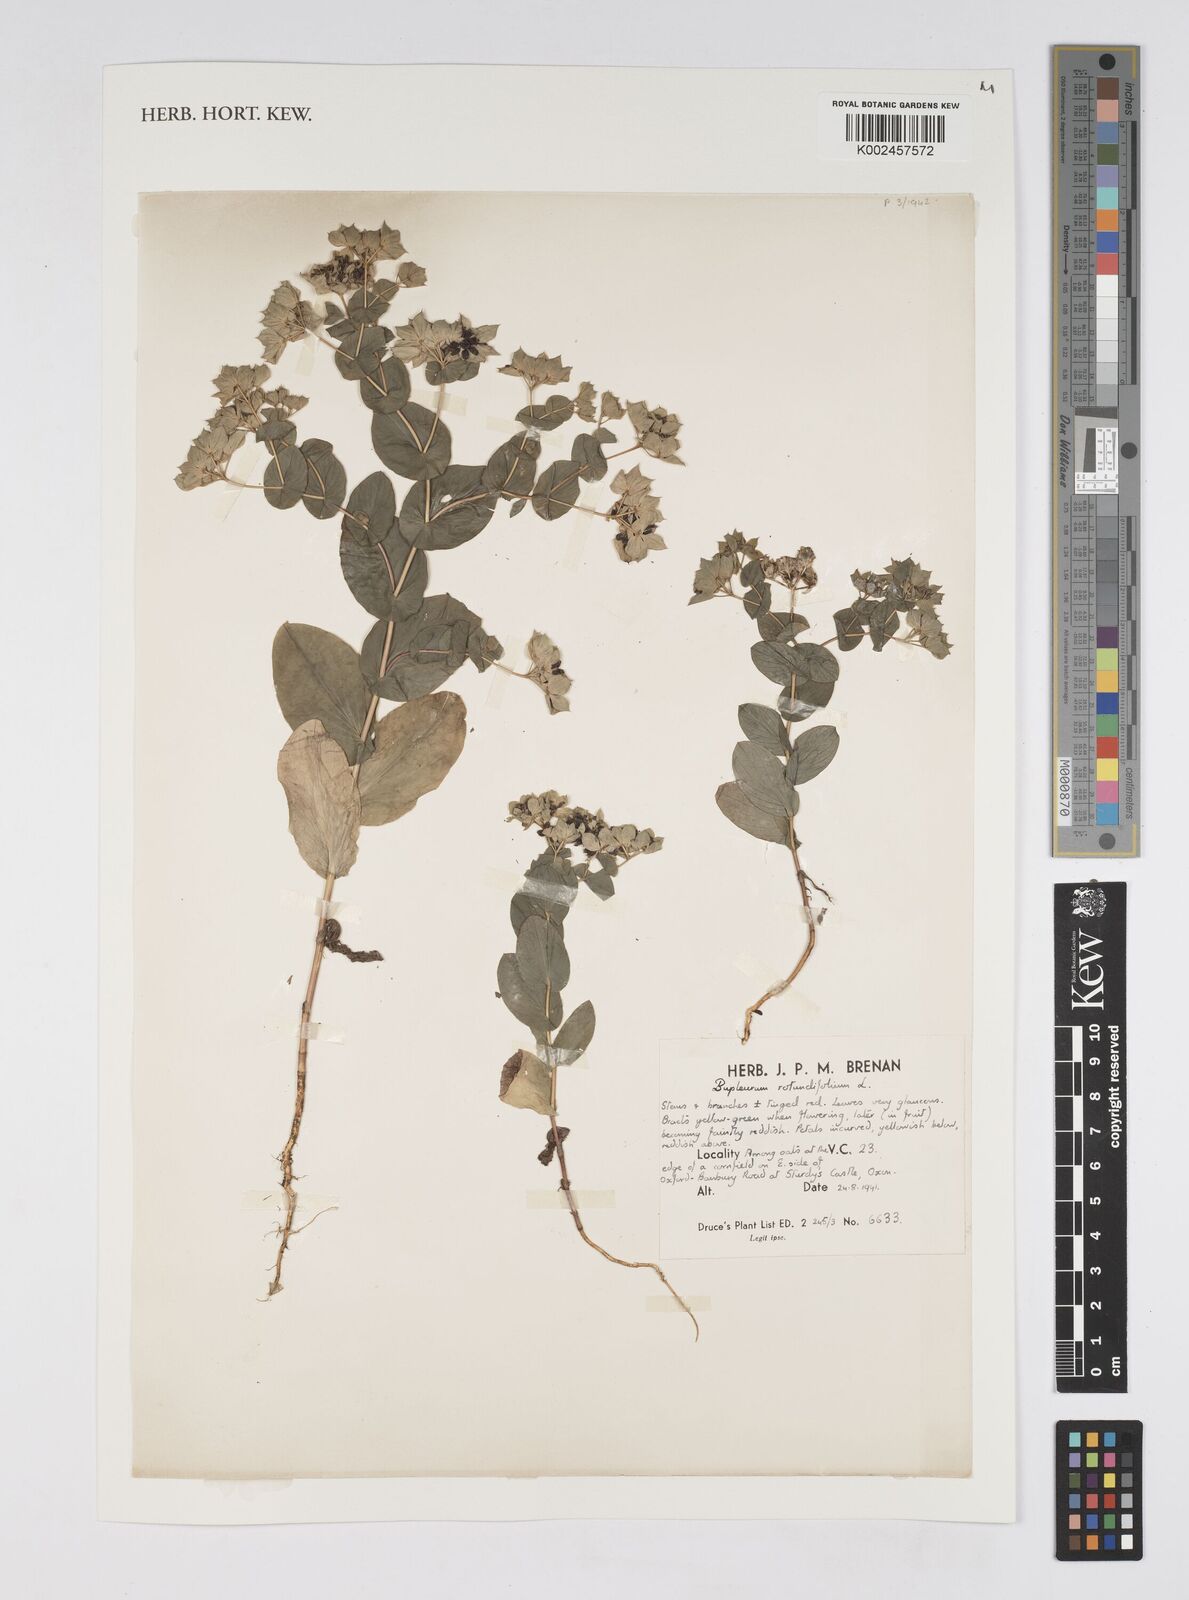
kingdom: Plantae
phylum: Tracheophyta
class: Magnoliopsida
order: Apiales
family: Apiaceae
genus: Bupleurum
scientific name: Bupleurum rotundifolium
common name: Thorow-wax
